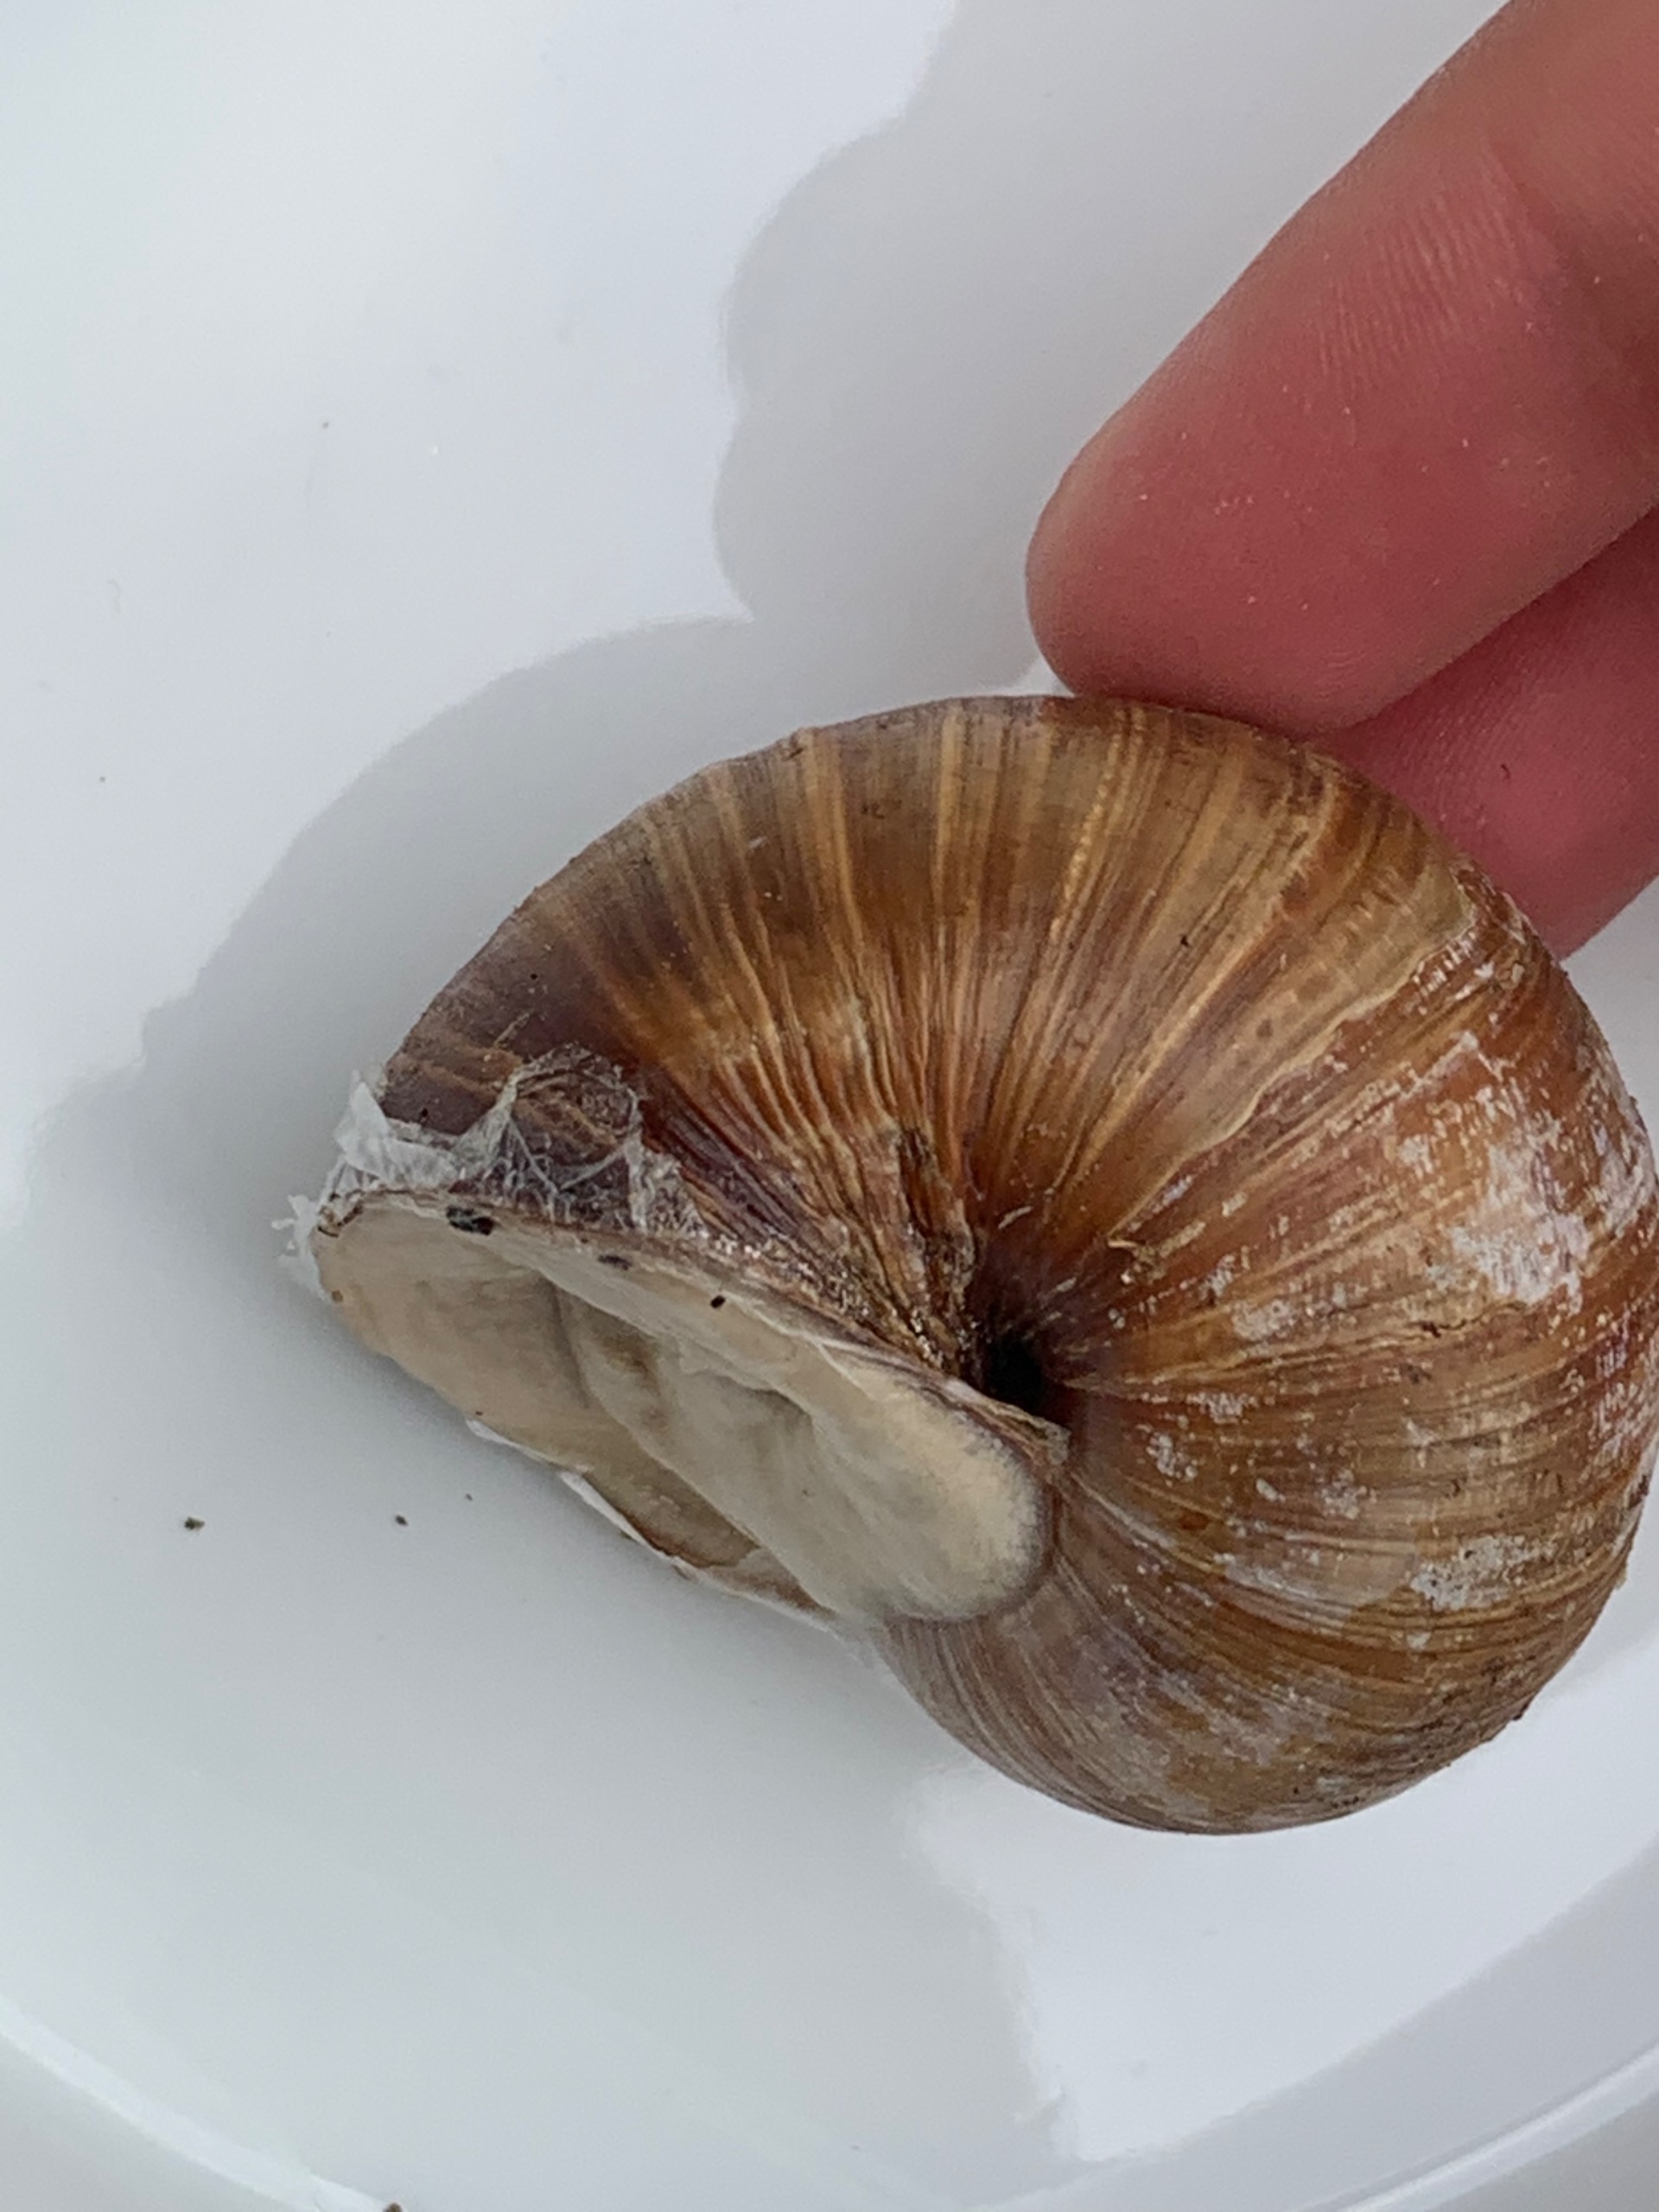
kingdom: Animalia
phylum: Mollusca
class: Gastropoda
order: Stylommatophora
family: Helicidae
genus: Helix
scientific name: Helix pomatia
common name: Vinbjergsnegl
